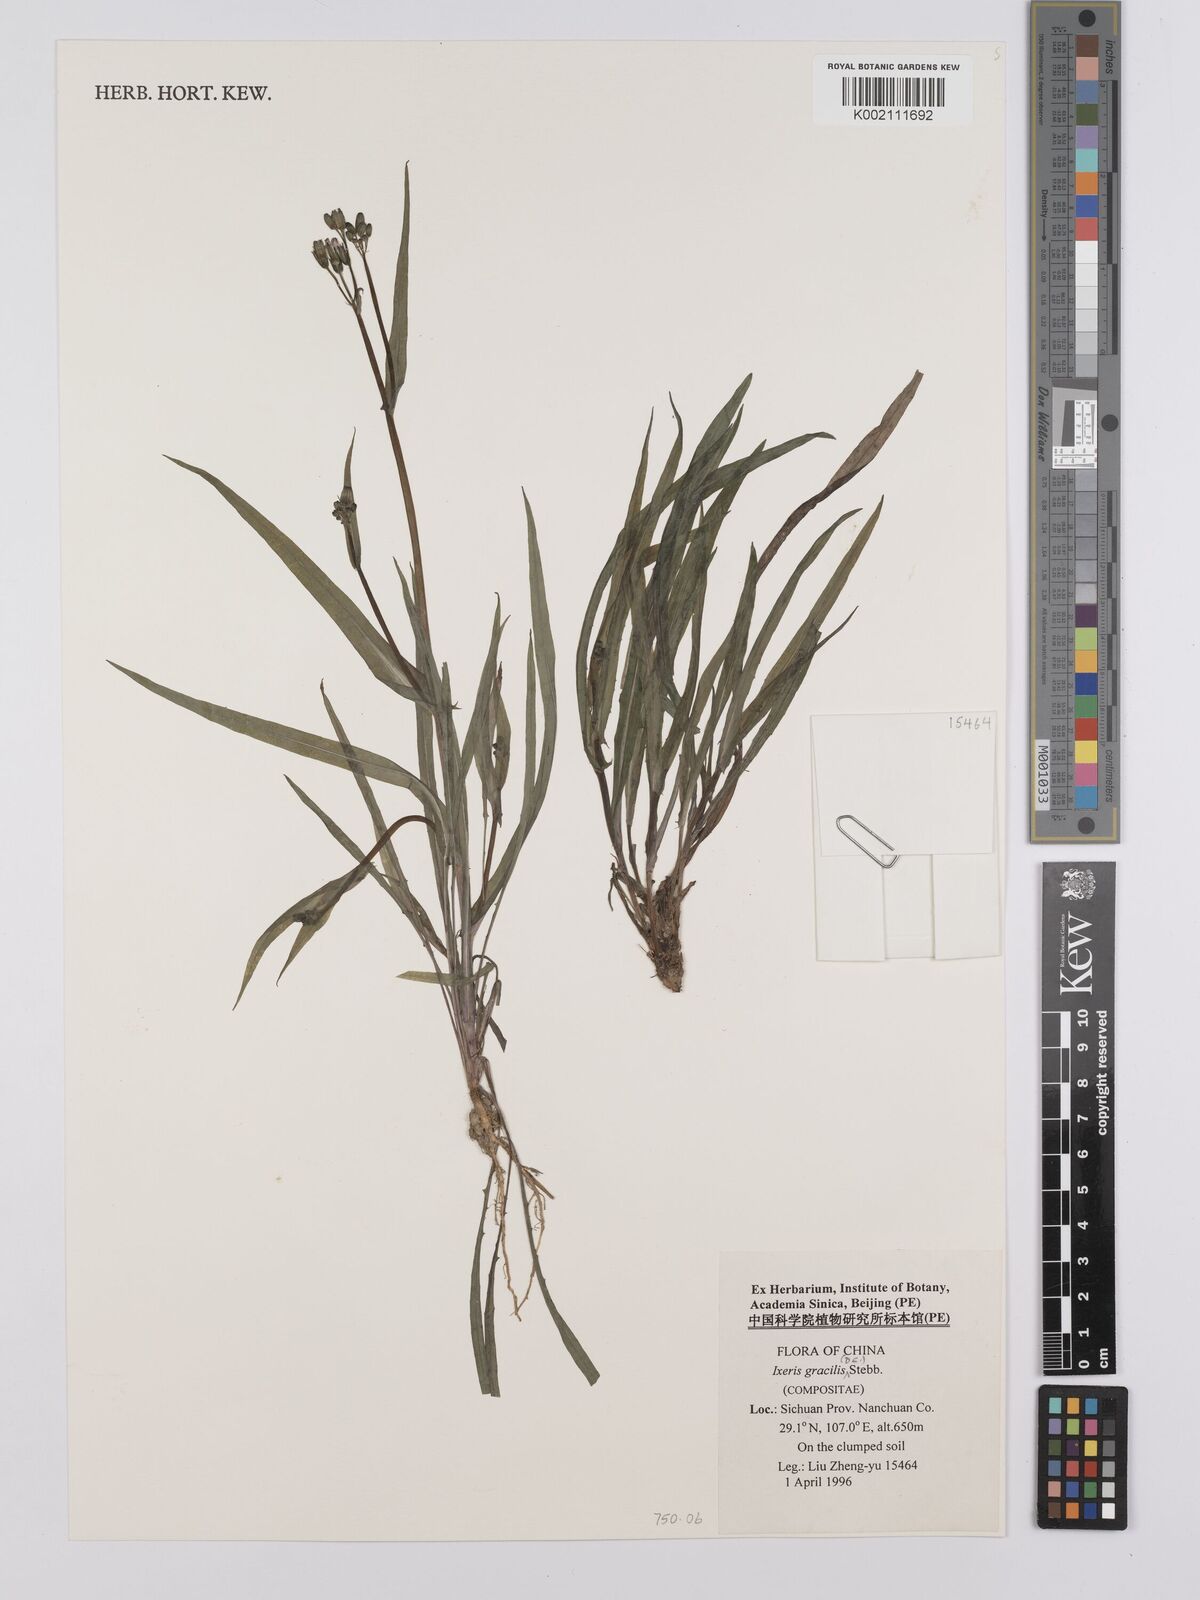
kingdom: Plantae
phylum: Tracheophyta
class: Magnoliopsida
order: Asterales
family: Asteraceae
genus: Ixeridium
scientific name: Ixeridium gracile
